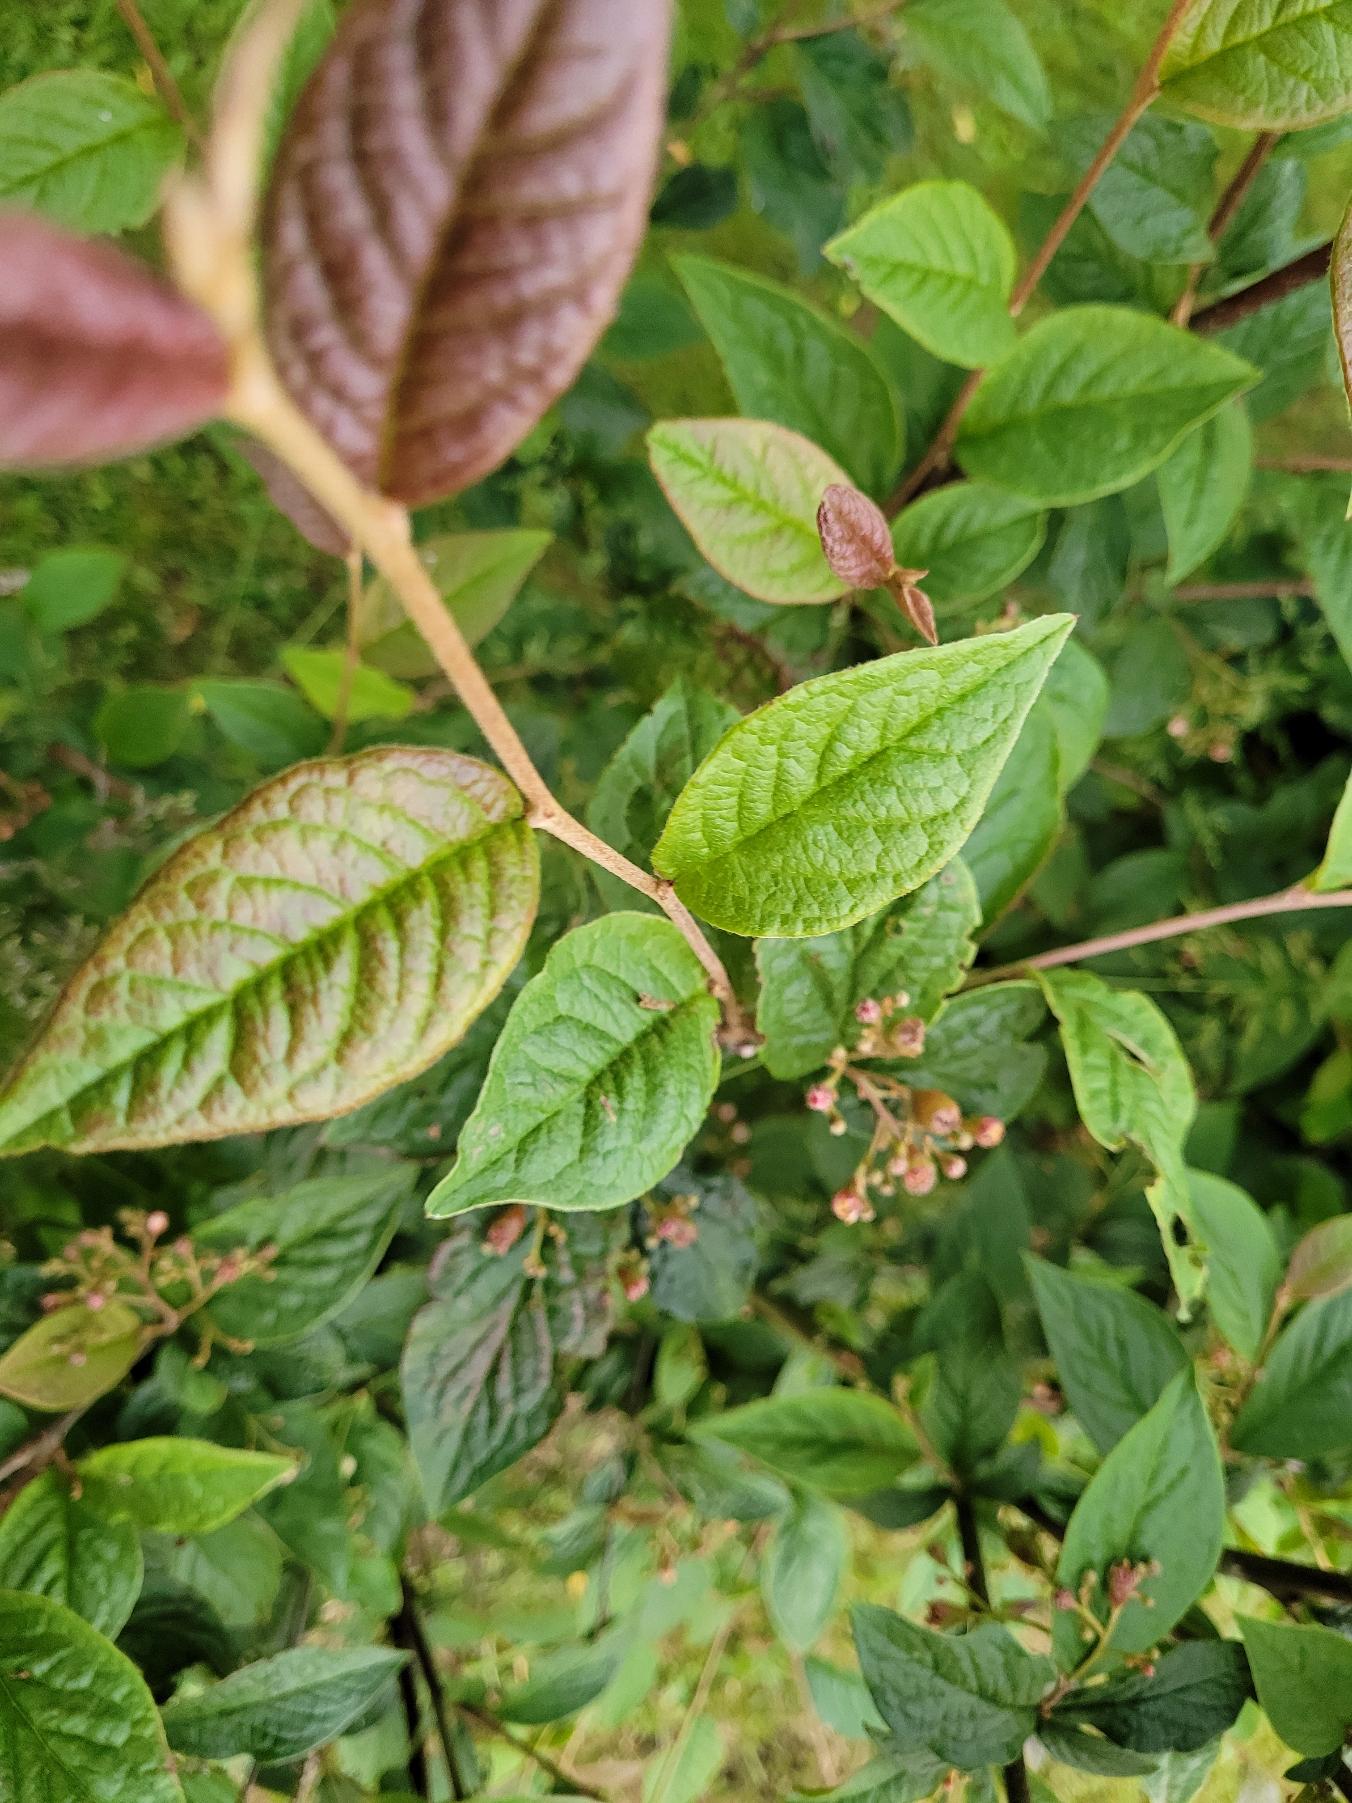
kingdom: Plantae
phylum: Tracheophyta
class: Magnoliopsida
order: Rosales
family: Rosaceae
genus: Cotoneaster
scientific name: Cotoneaster bullatus
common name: Storbladet dværgmispel
